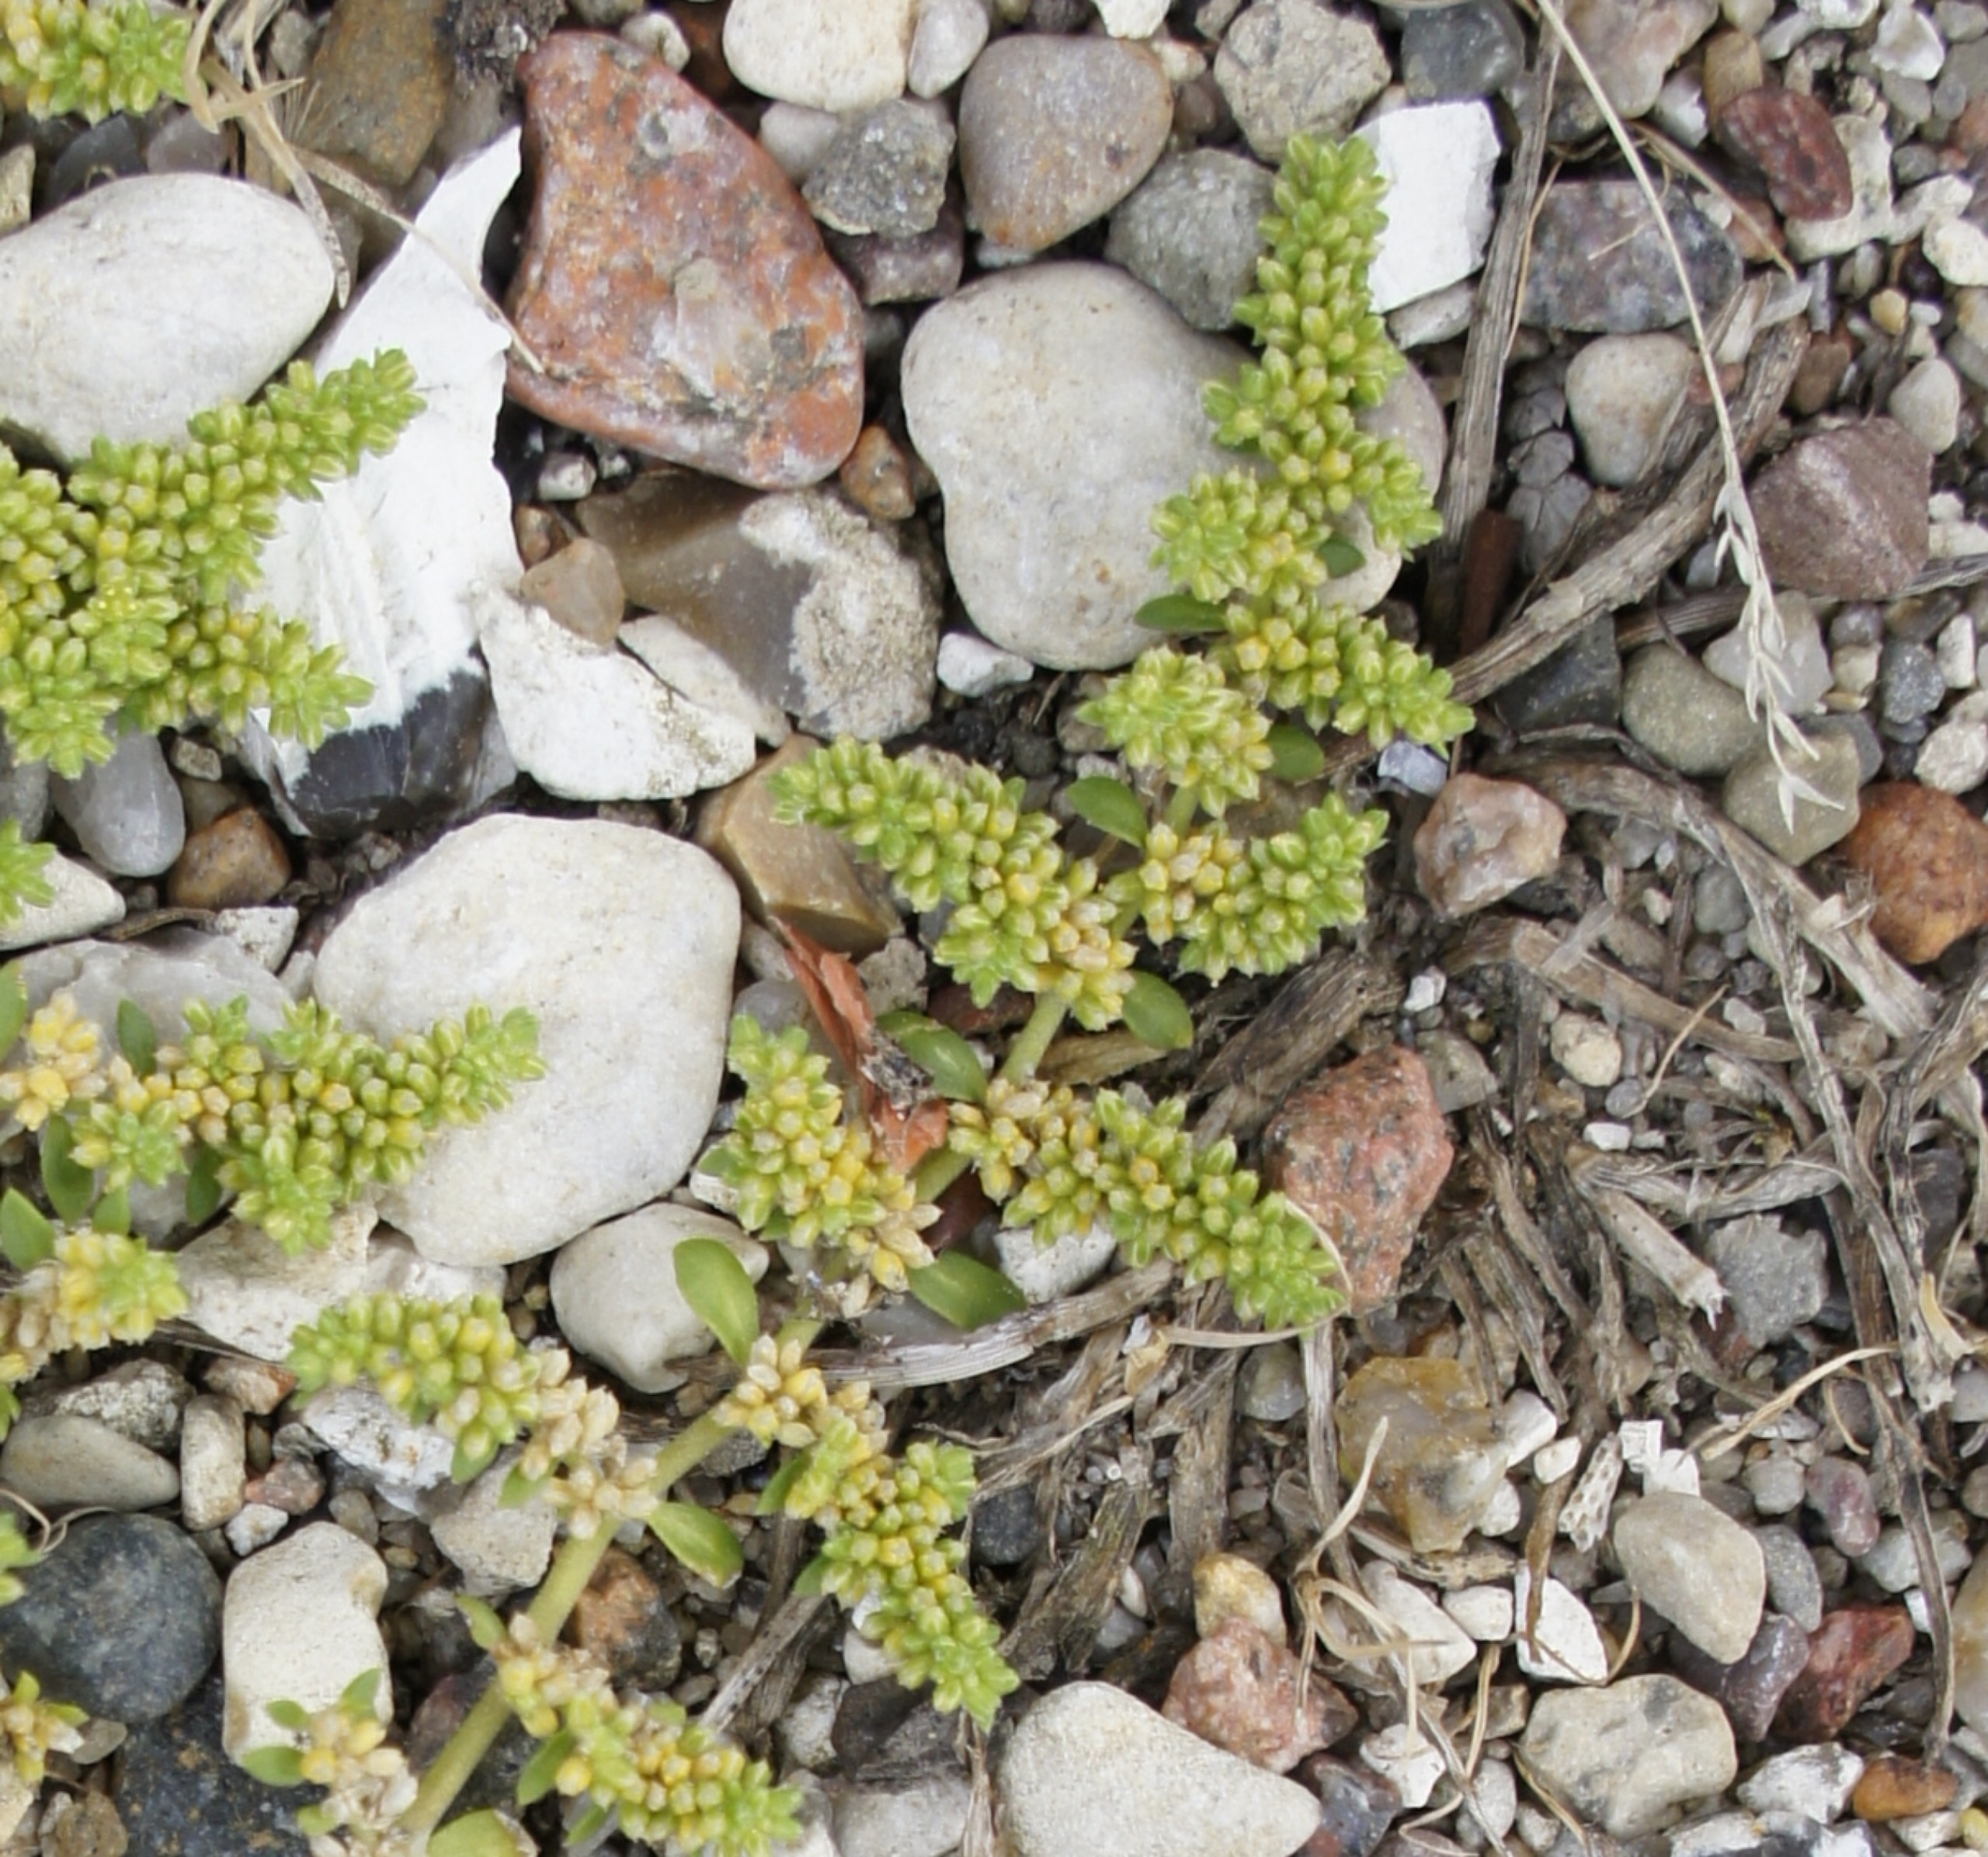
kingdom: Plantae
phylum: Tracheophyta
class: Magnoliopsida
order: Caryophyllales
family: Caryophyllaceae
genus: Herniaria
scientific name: Herniaria glabra
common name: Brudurt
